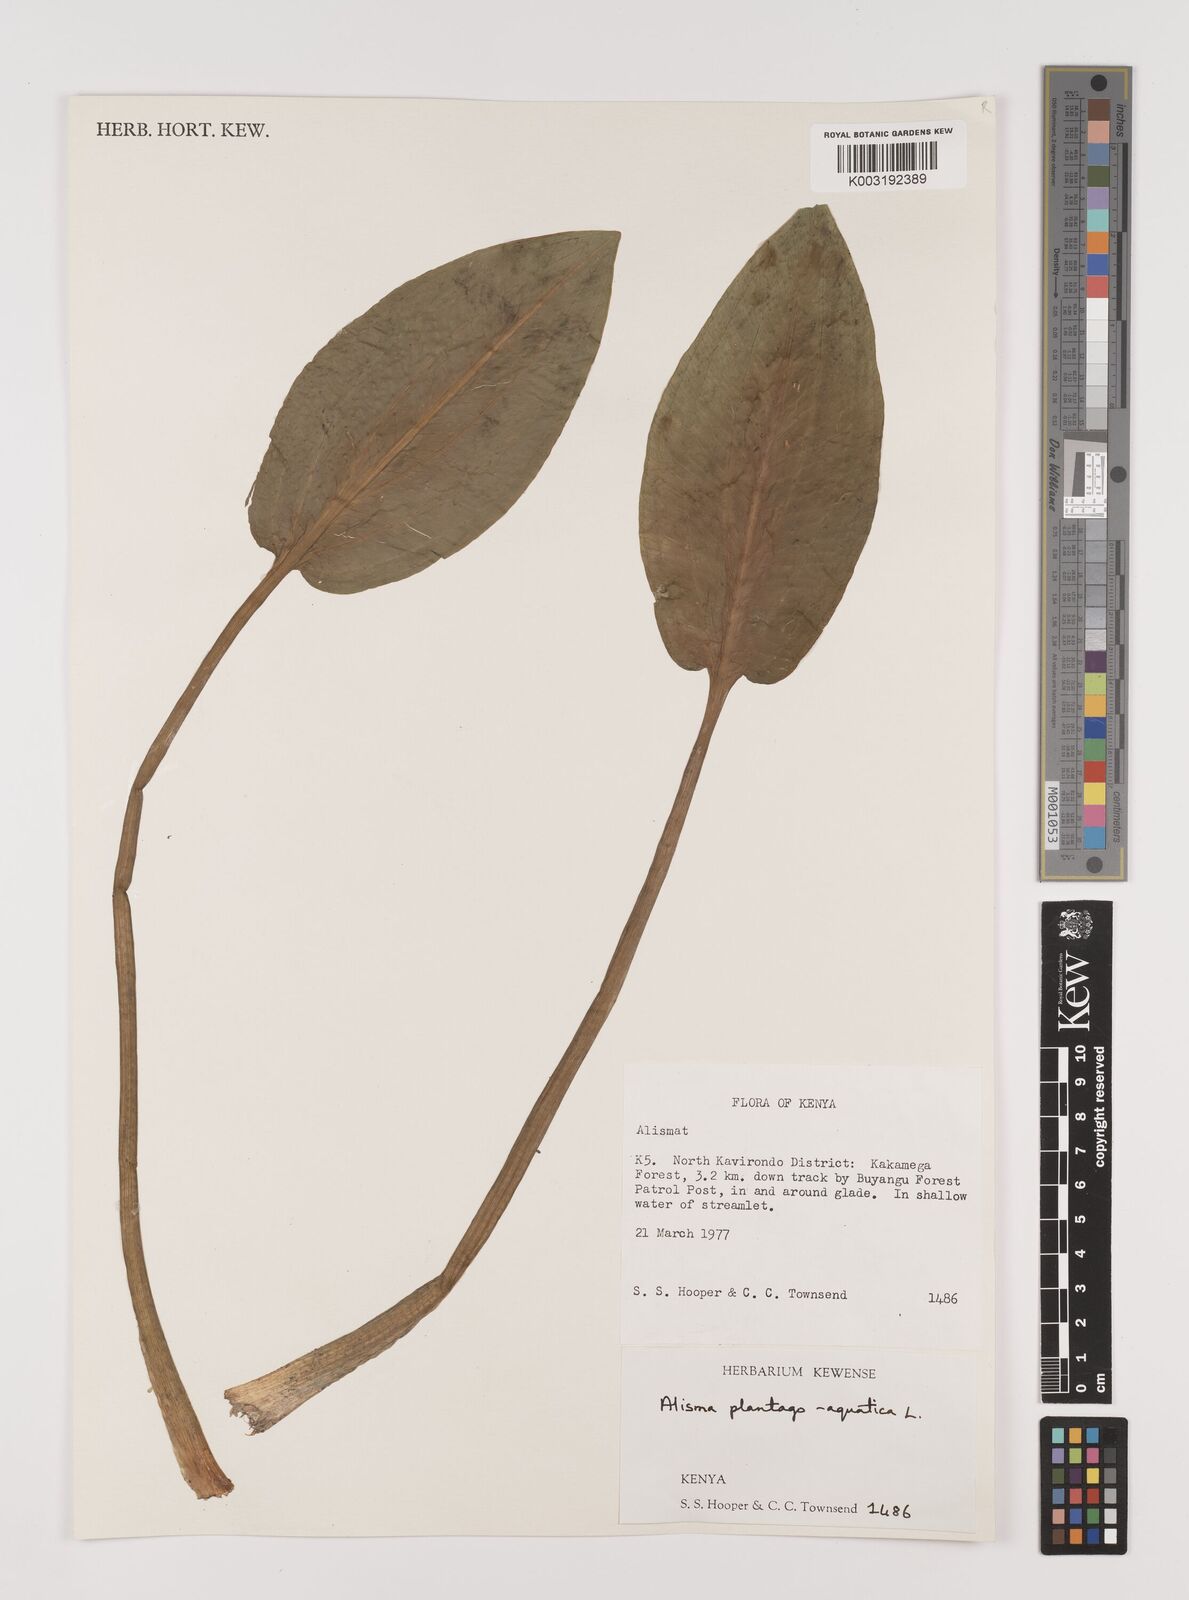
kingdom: Plantae
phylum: Tracheophyta
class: Liliopsida
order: Alismatales
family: Alismataceae
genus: Alisma
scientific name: Alisma plantago-aquatica
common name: Water-plantain
